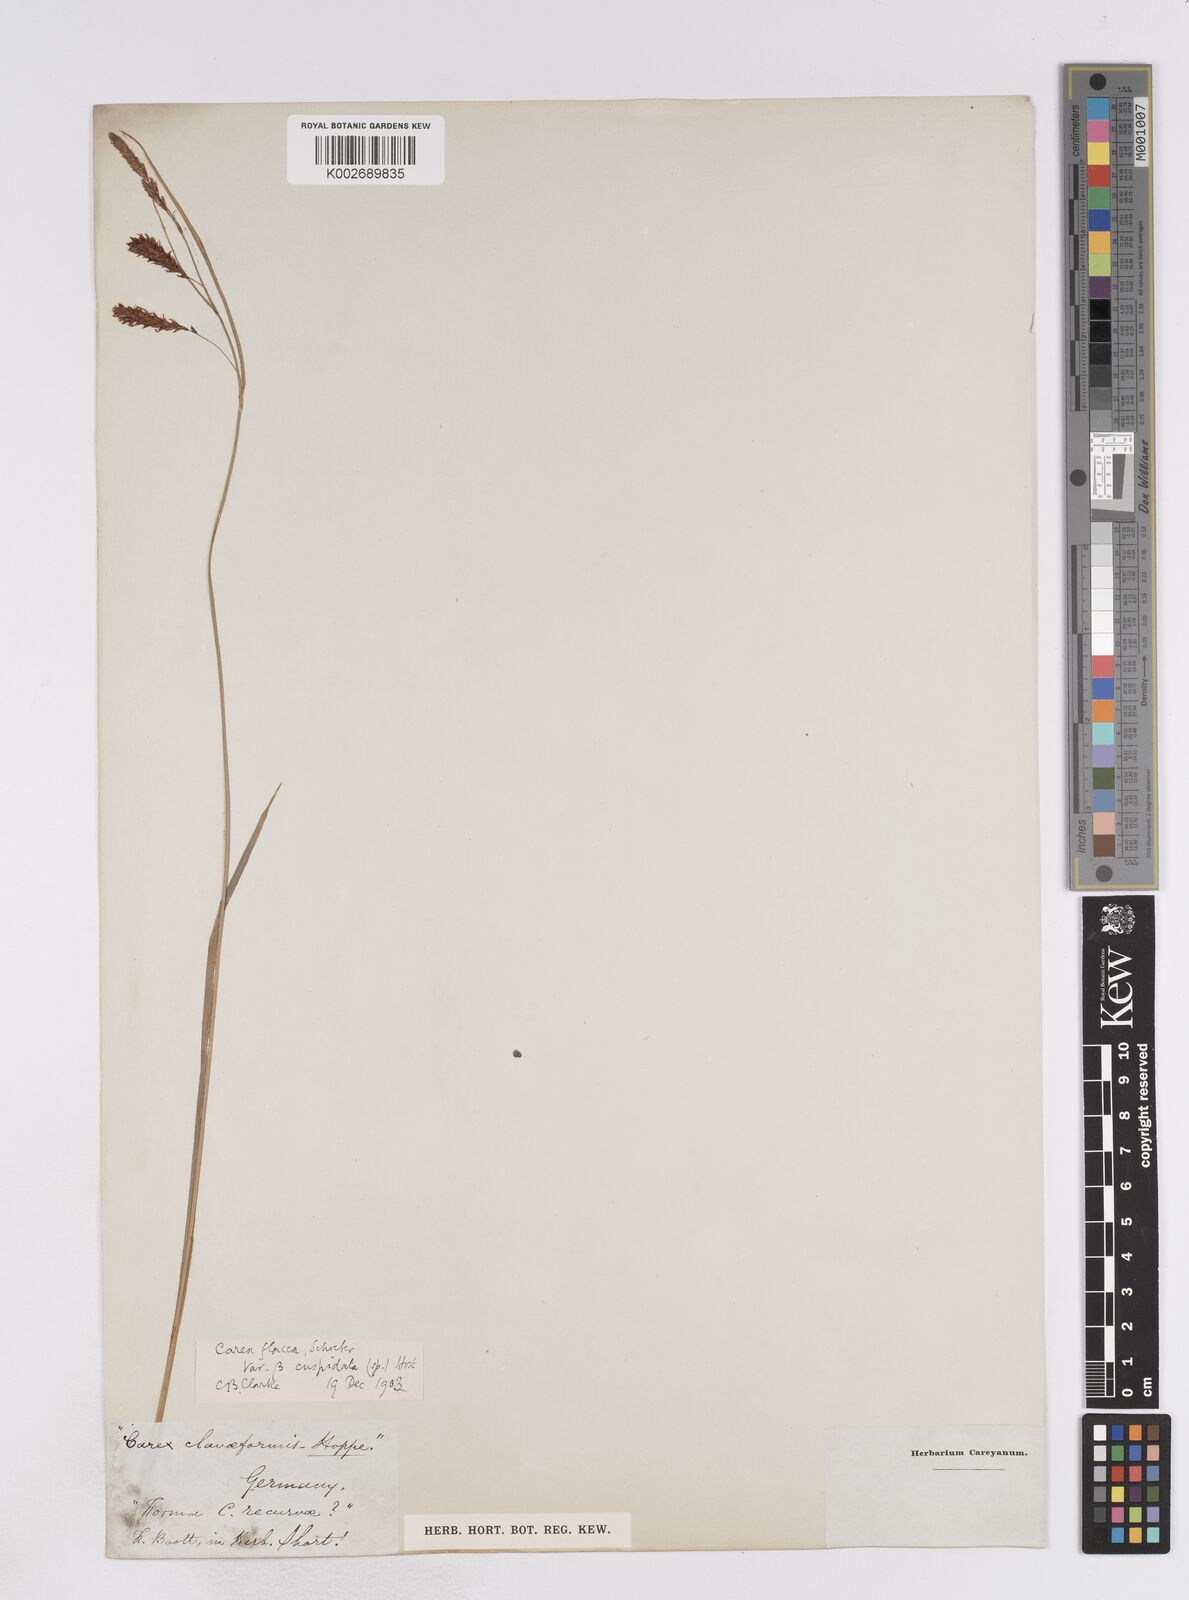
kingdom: Plantae
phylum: Tracheophyta
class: Liliopsida
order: Poales
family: Cyperaceae
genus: Carex
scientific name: Carex flacca
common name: Glaucous sedge
